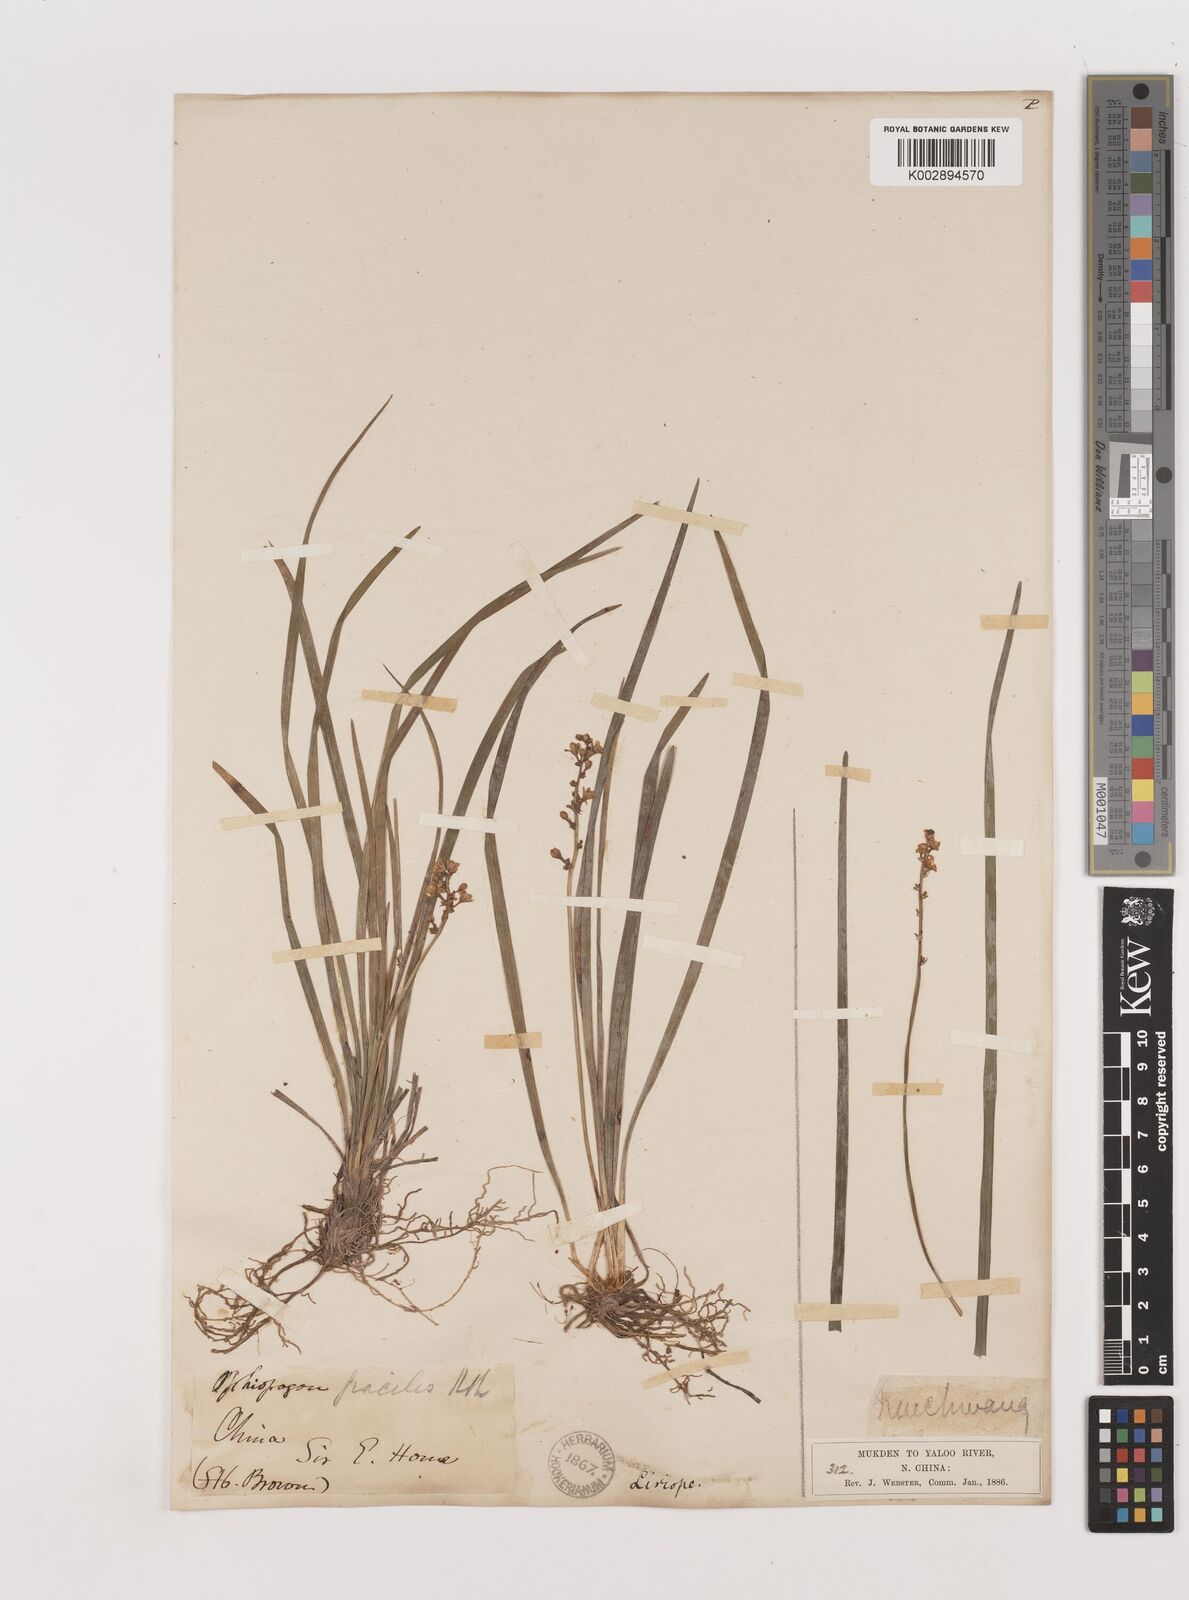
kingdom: Plantae
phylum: Tracheophyta
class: Liliopsida
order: Asparagales
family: Asparagaceae
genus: Liriope
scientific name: Liriope spicata
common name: Creeping liriope
